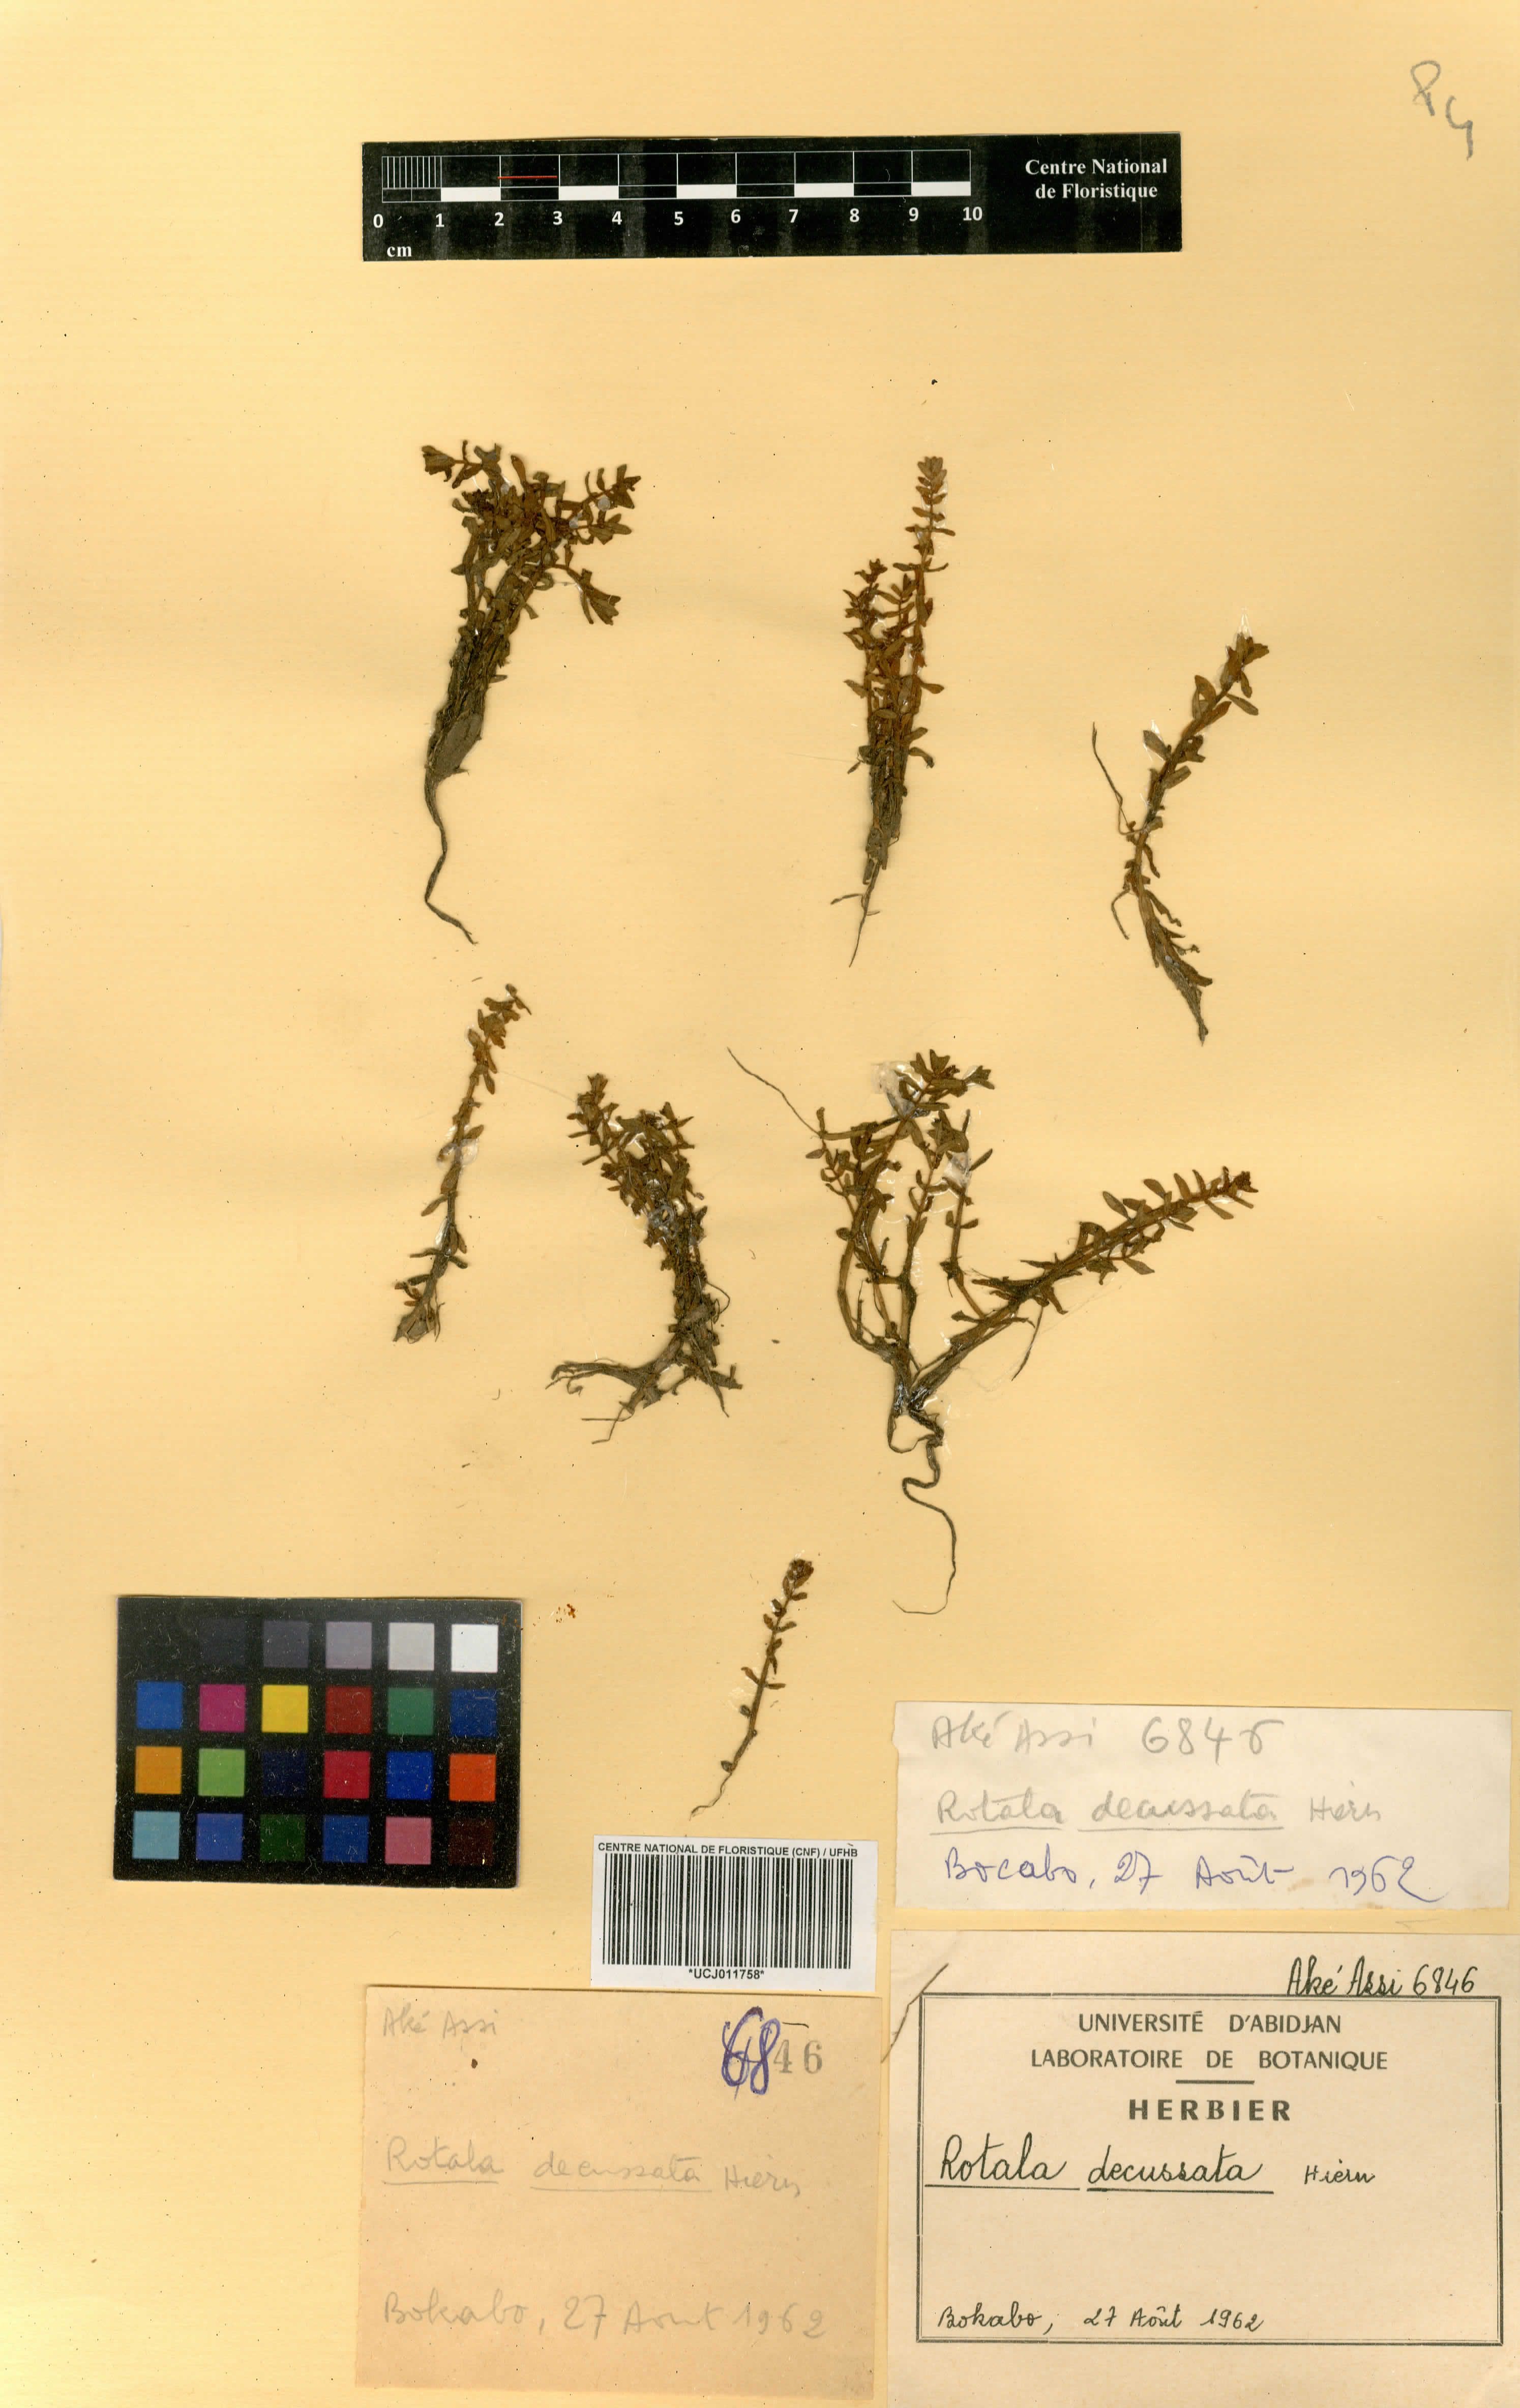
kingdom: Plantae
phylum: Tracheophyta
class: Magnoliopsida
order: Myrtales
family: Lythraceae
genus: Rotala
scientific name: Rotala welwitschii
